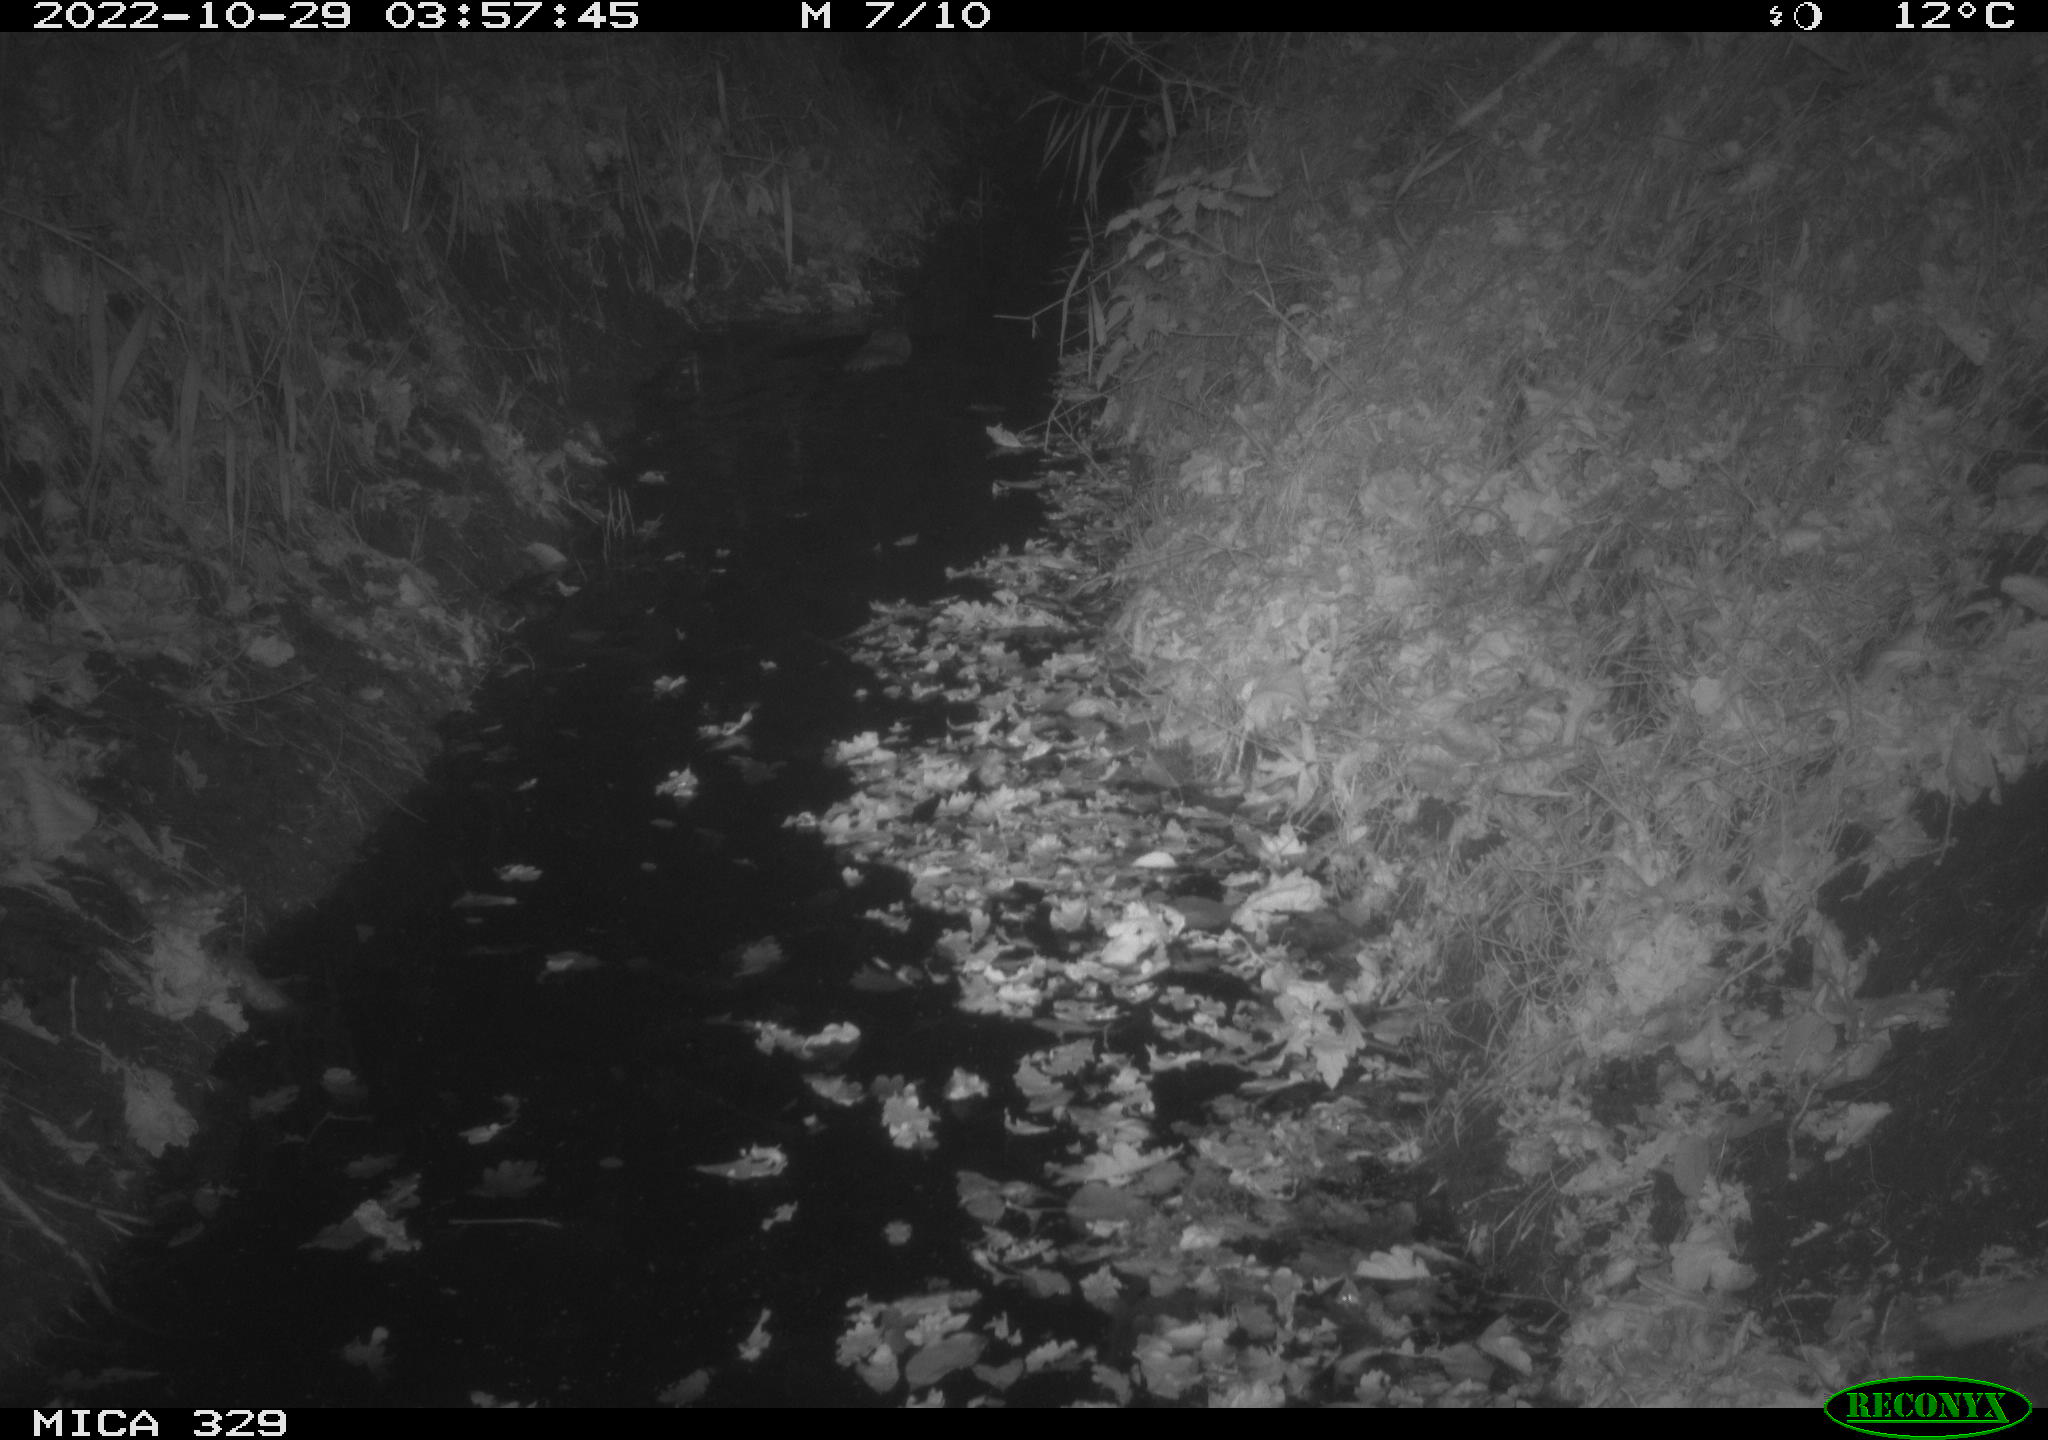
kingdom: Animalia
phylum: Chordata
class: Mammalia
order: Rodentia
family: Cricetidae
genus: Ondatra
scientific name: Ondatra zibethicus
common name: Muskrat
